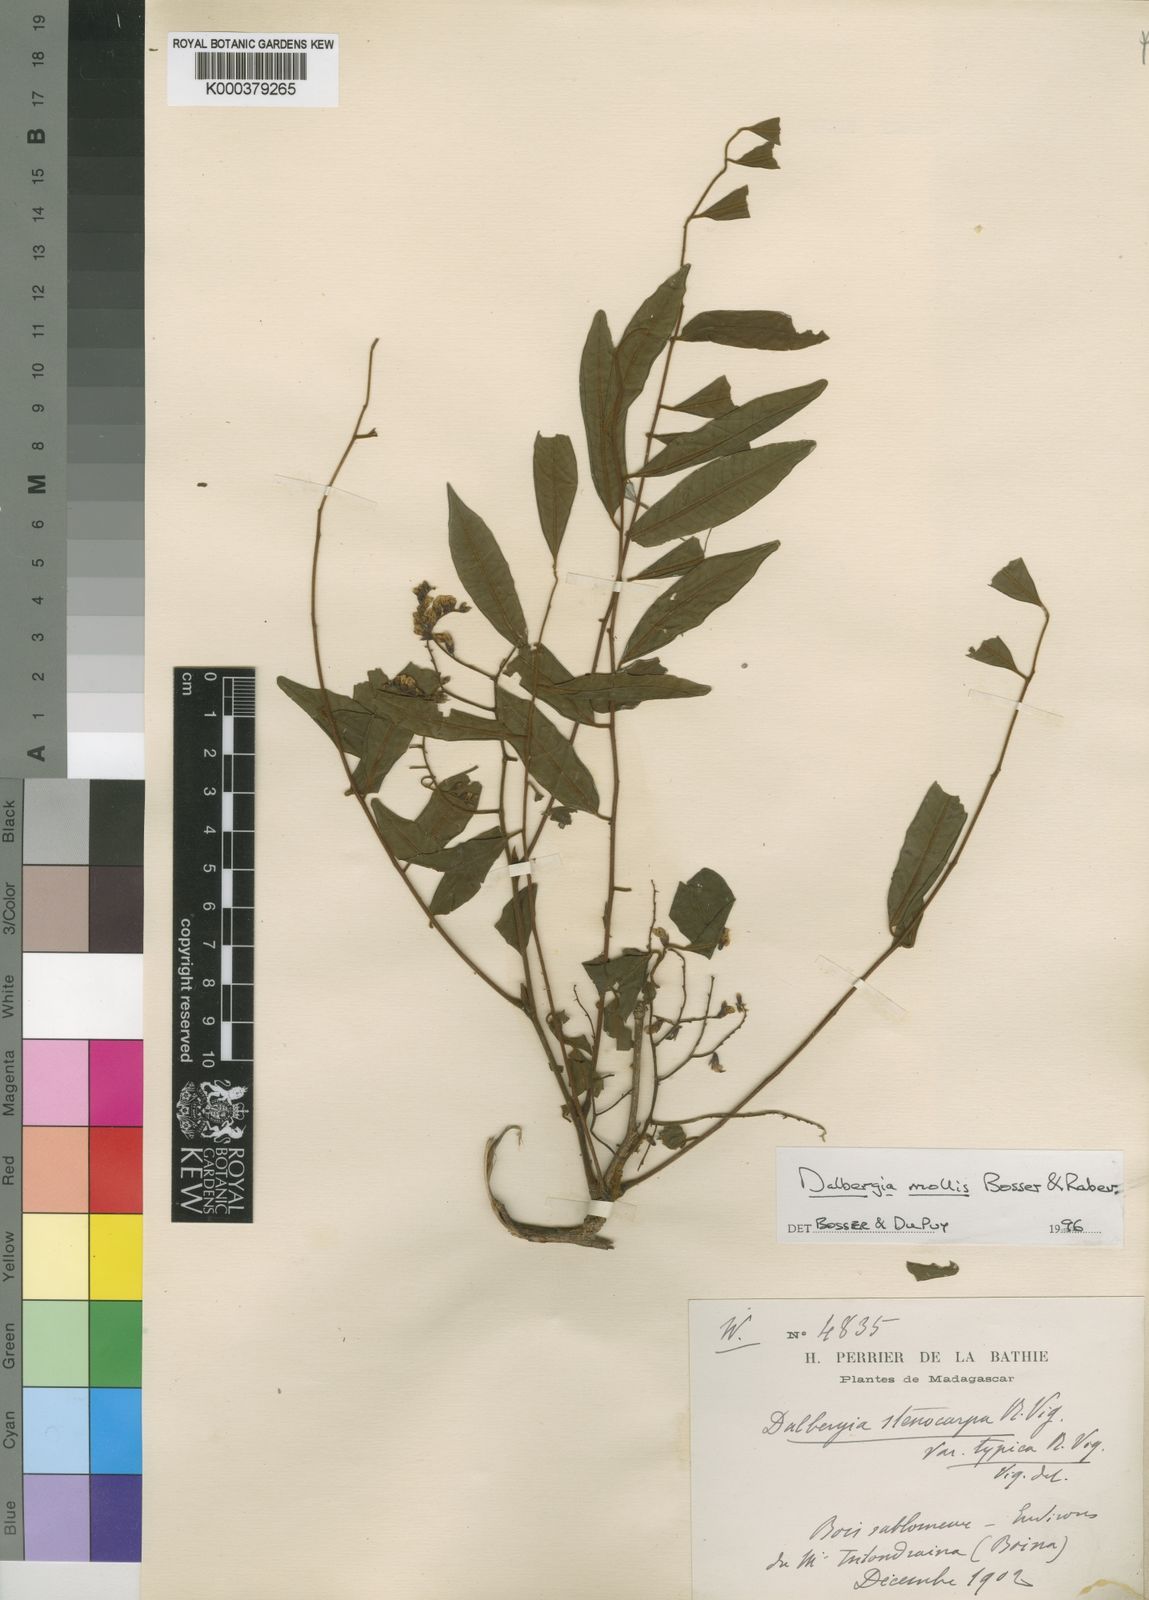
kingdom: Plantae
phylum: Tracheophyta
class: Magnoliopsida
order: Fabales
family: Fabaceae
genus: Dalbergia
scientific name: Dalbergia bemarivensis
